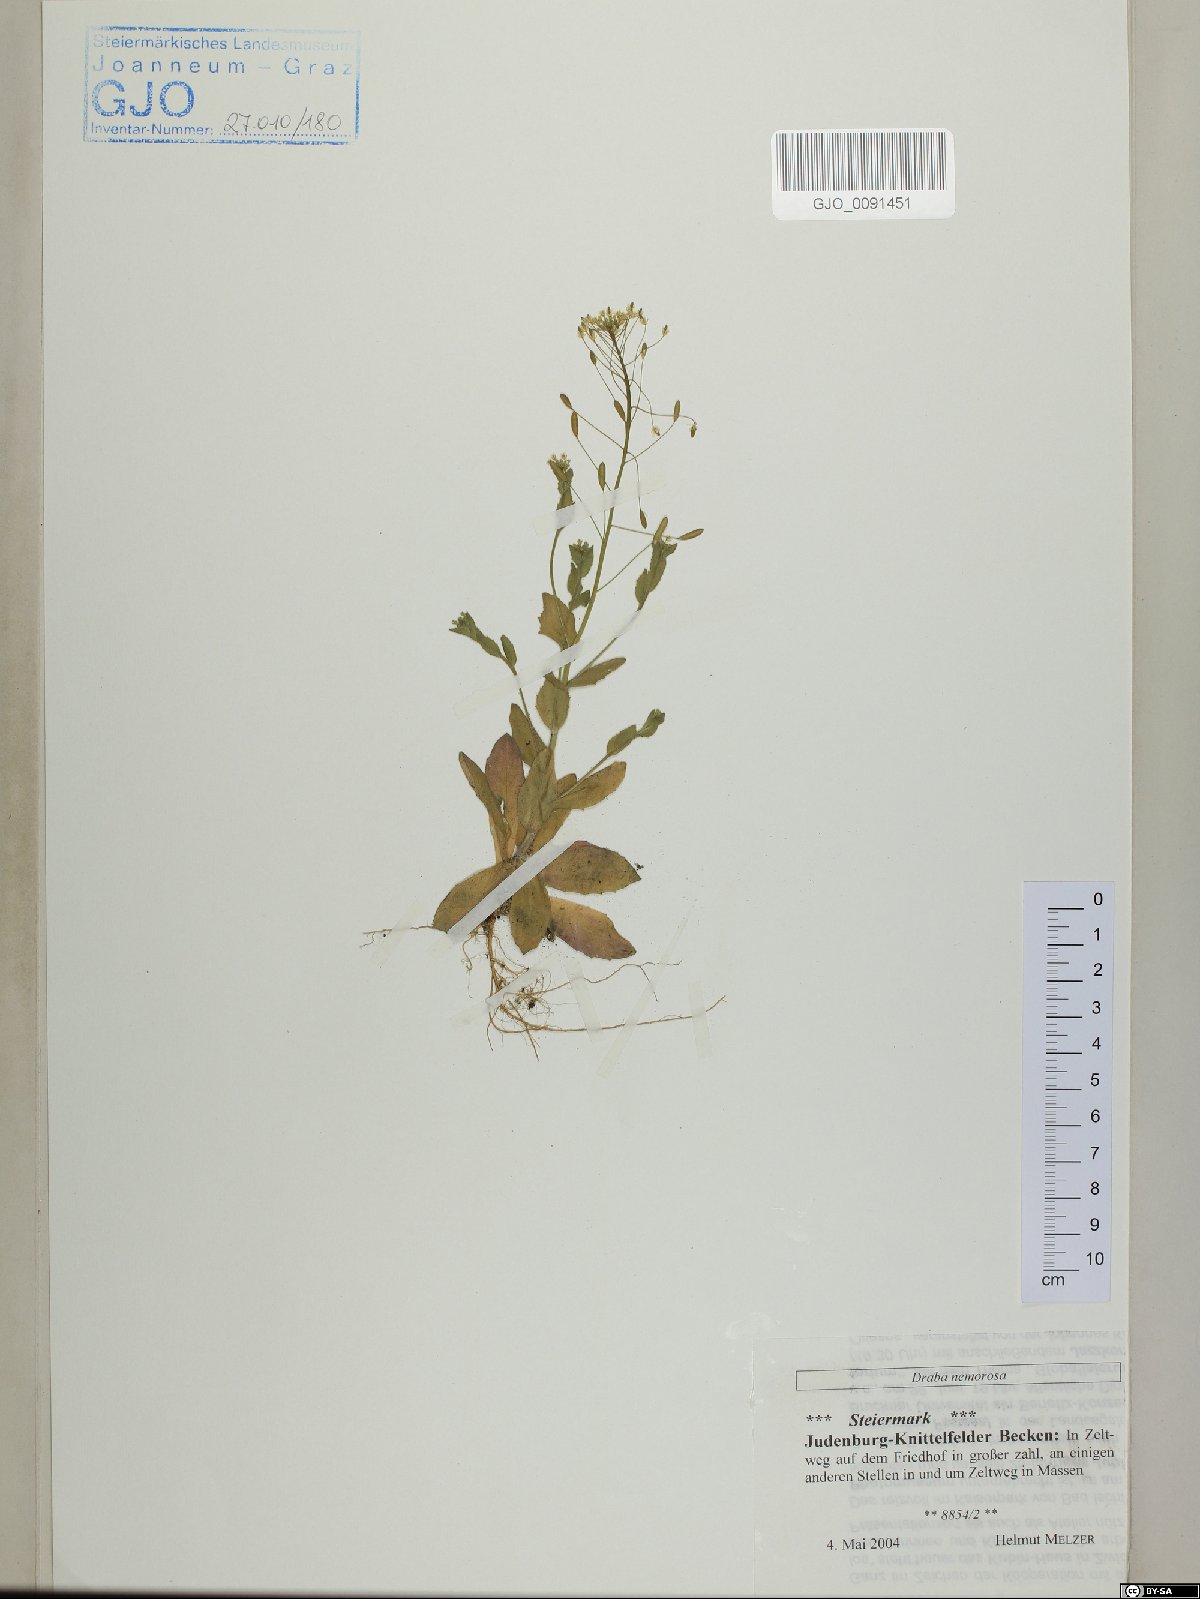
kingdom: Plantae
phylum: Tracheophyta
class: Magnoliopsida
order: Brassicales
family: Brassicaceae
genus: Draba
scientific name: Draba nemorosa
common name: Wood whitlow-grass
